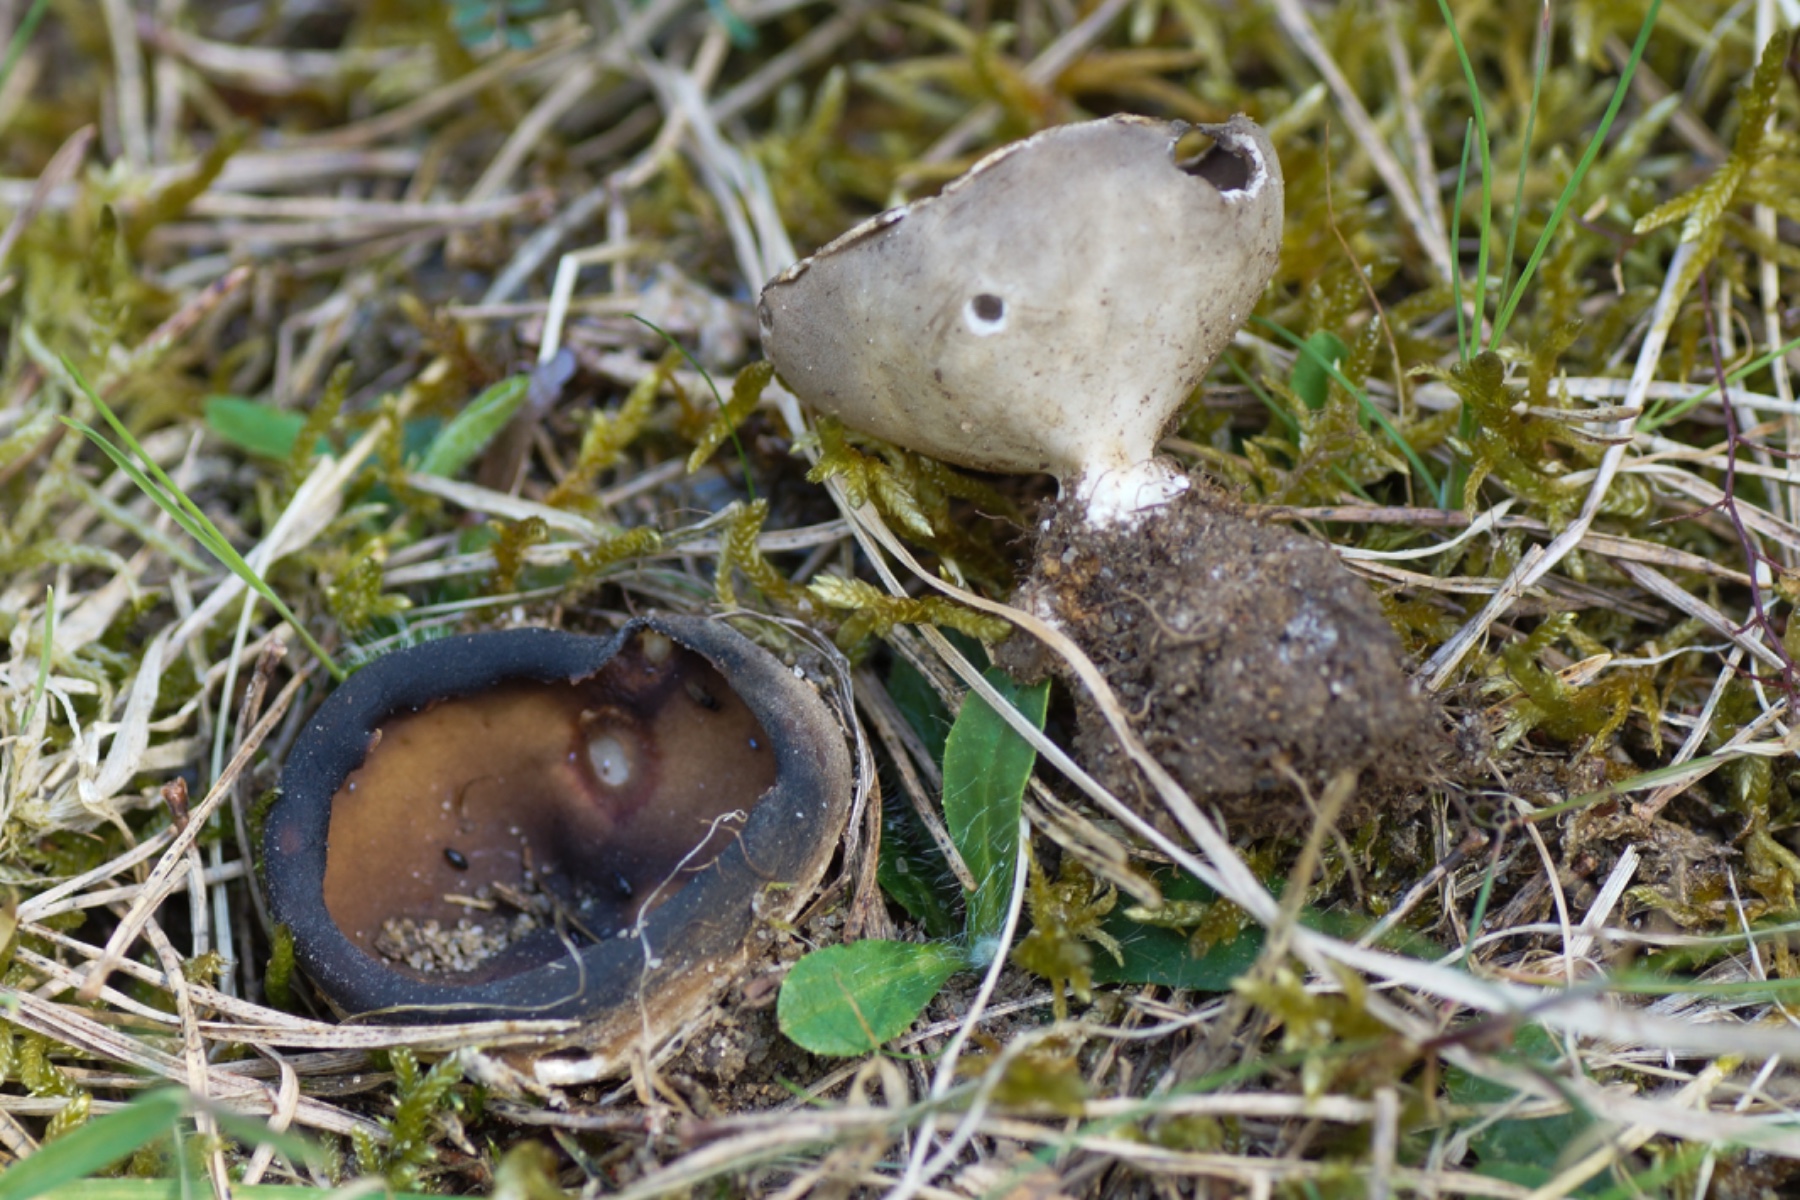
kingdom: Fungi
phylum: Ascomycota
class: Pezizomycetes
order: Pezizales
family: Helvellaceae
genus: Dissingia
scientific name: Dissingia leucomelaena
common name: sorthvid foldhat
